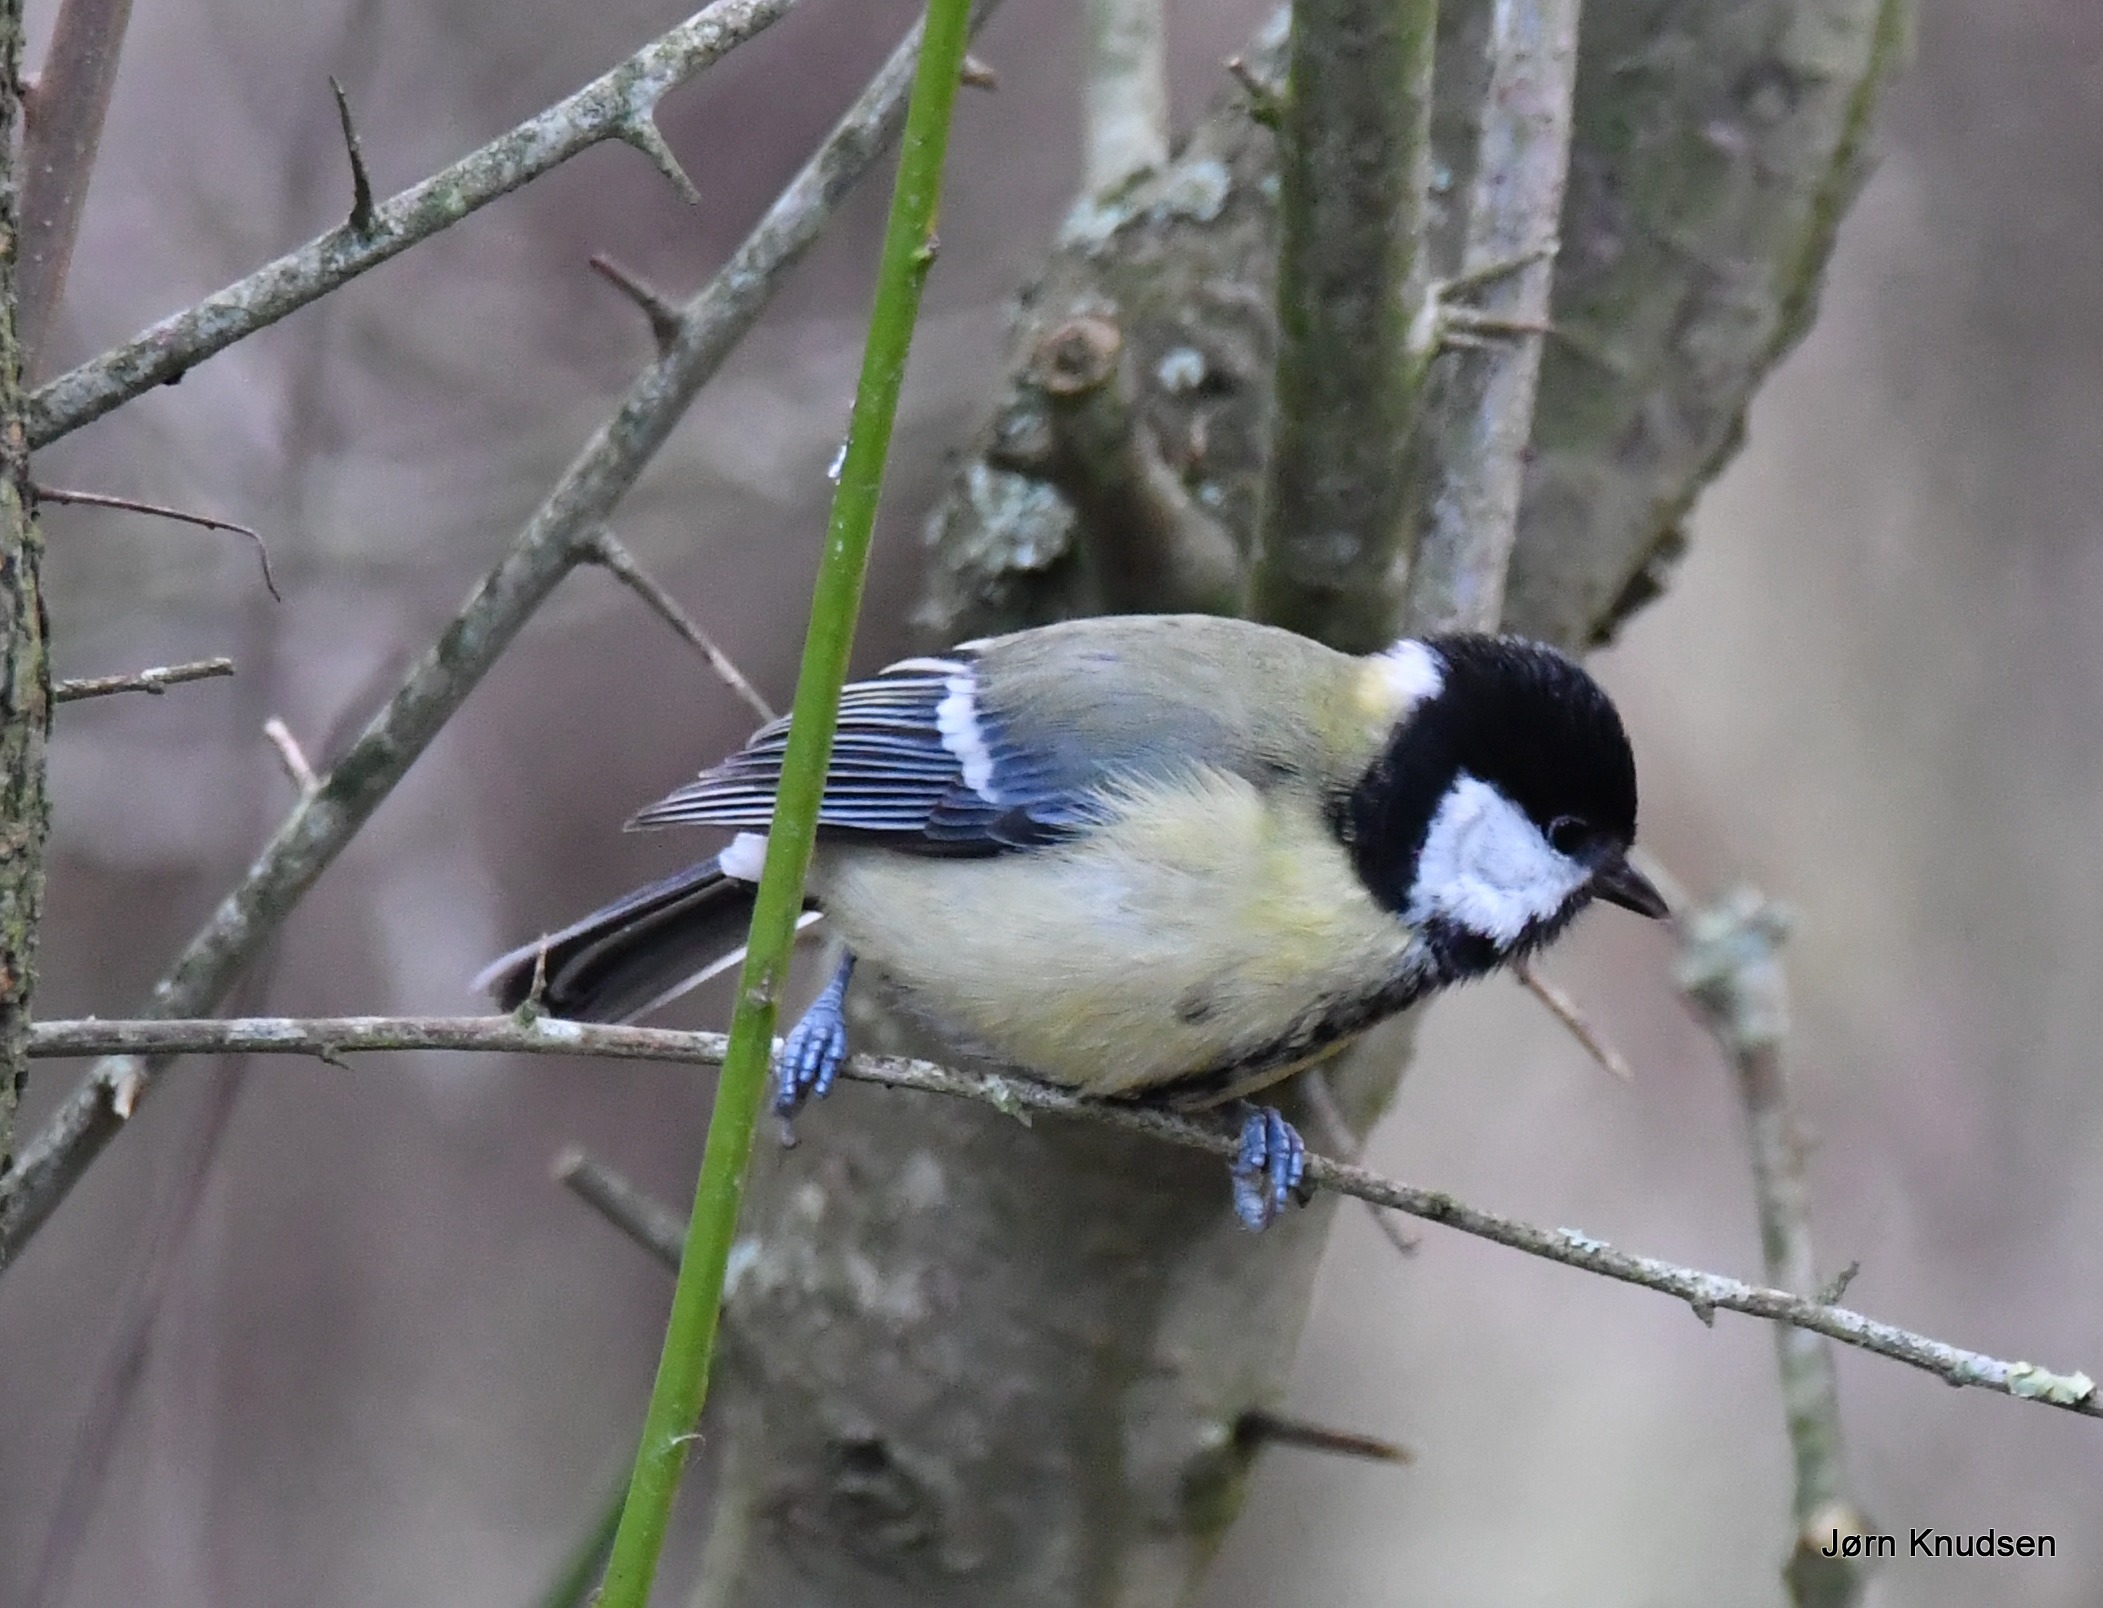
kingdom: Animalia
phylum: Chordata
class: Aves
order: Passeriformes
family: Paridae
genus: Parus
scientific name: Parus major
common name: Musvit
